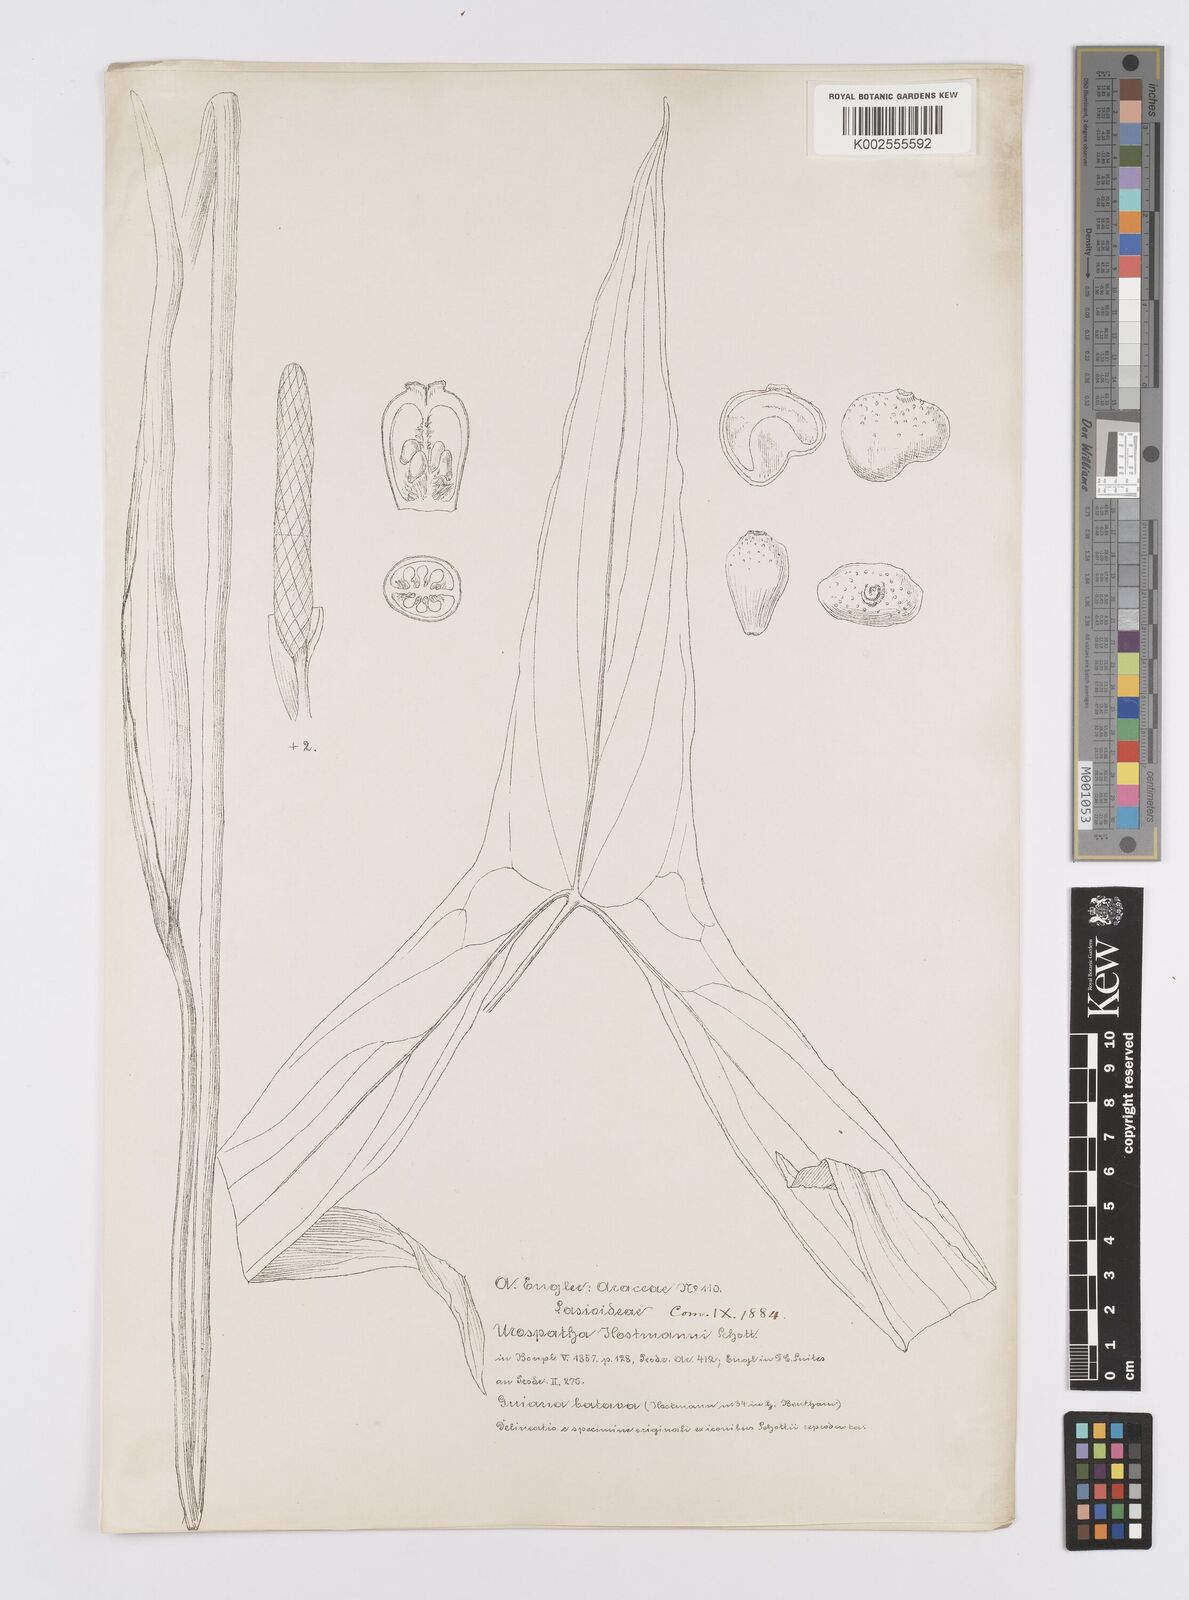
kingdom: Plantae
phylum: Tracheophyta
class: Liliopsida
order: Alismatales
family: Araceae
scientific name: Araceae
